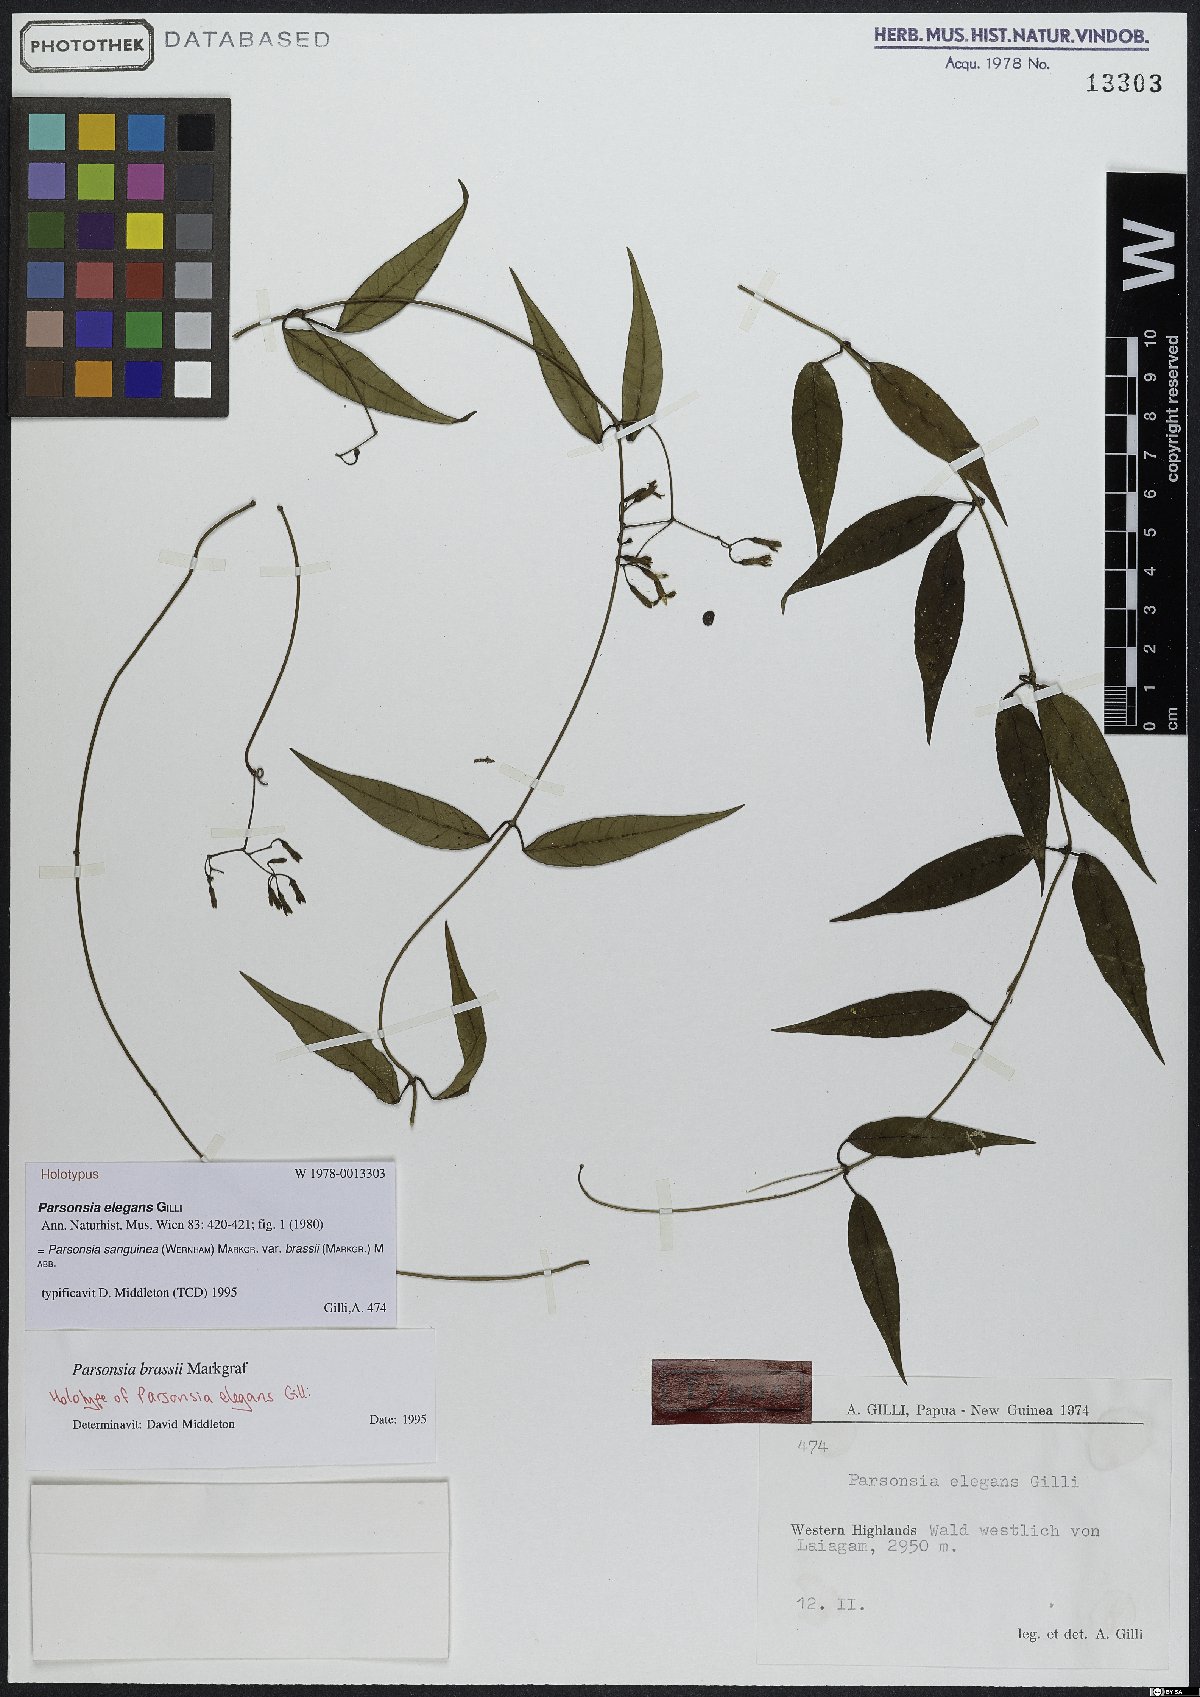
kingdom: Plantae
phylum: Tracheophyta
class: Magnoliopsida
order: Gentianales
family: Apocynaceae
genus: Parsonsia
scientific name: Parsonsia sanguinea
